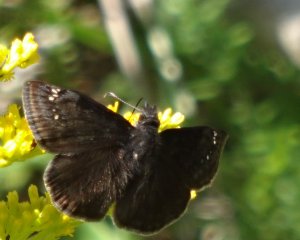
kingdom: Animalia
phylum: Arthropoda
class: Insecta
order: Lepidoptera
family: Hesperiidae
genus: Gesta
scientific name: Gesta
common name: Wild Indigo Duskywing
